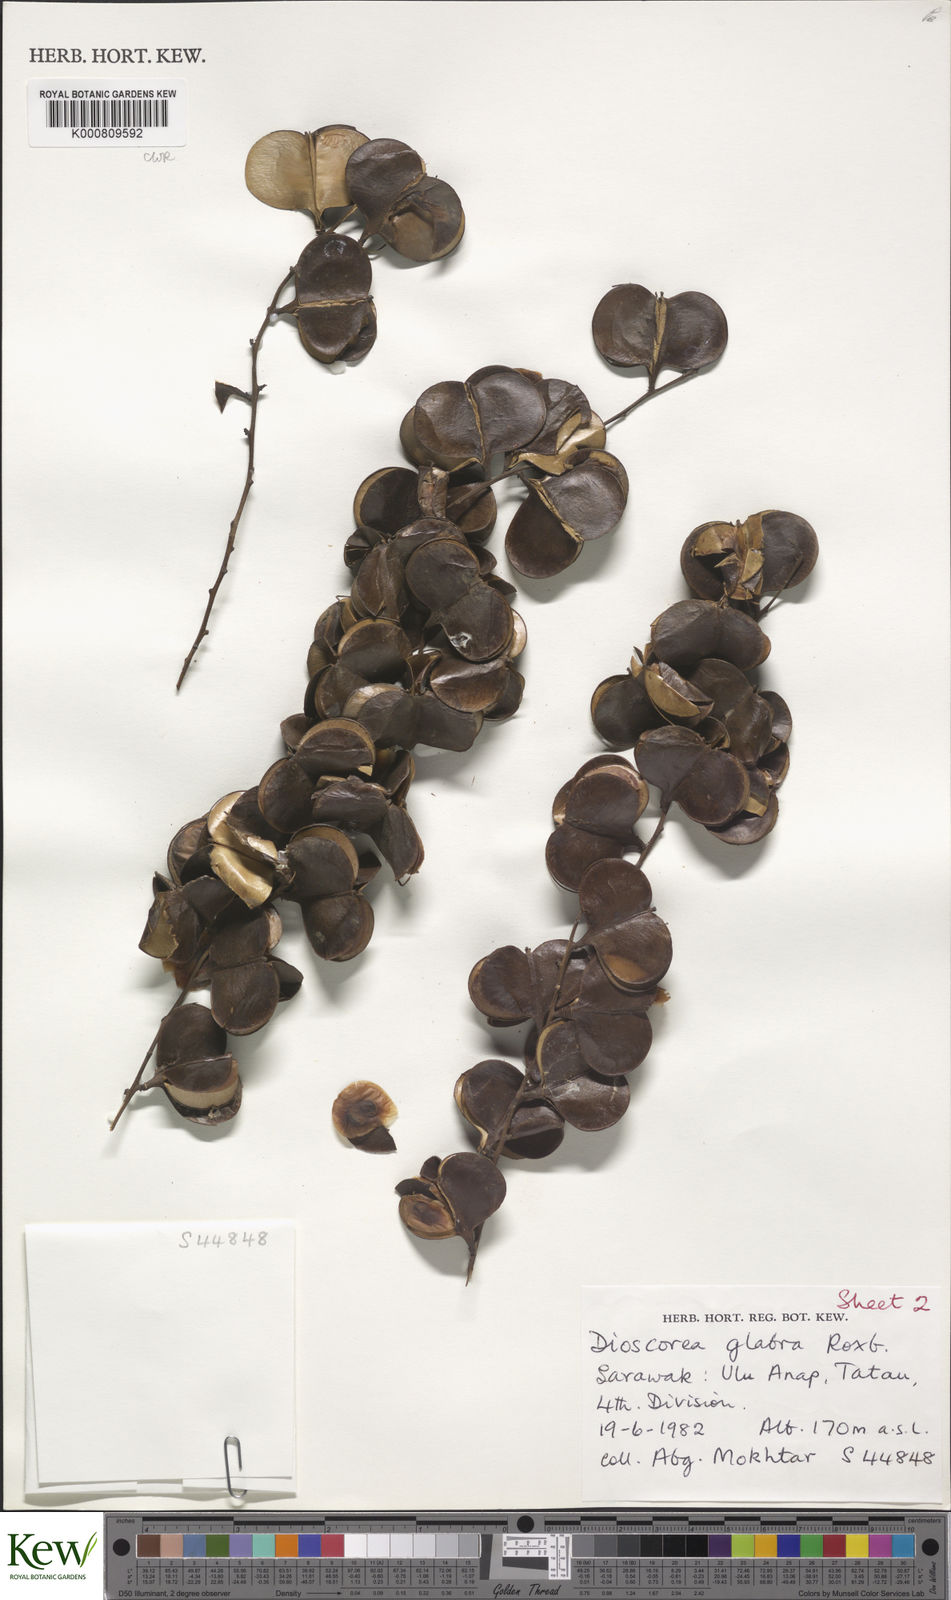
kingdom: Plantae
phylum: Tracheophyta
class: Liliopsida
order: Dioscoreales
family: Dioscoreaceae
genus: Dioscorea
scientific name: Dioscorea glabra
